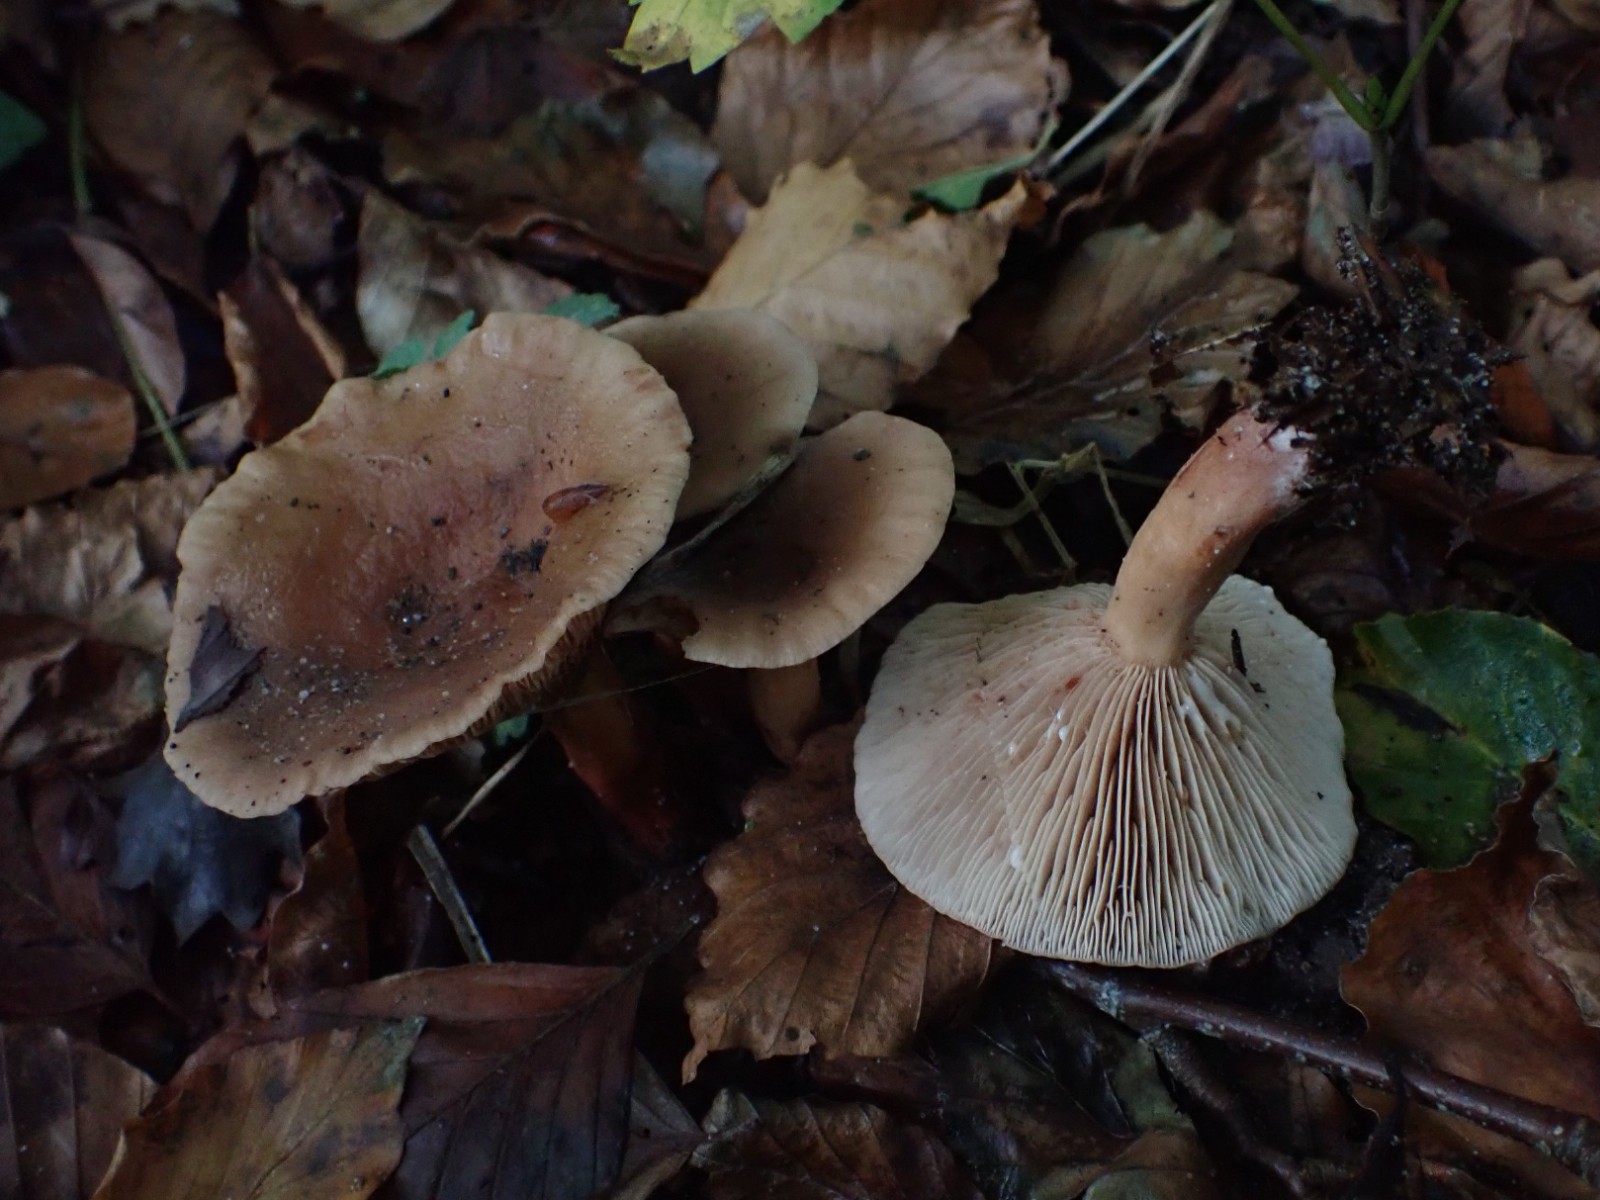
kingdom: Fungi
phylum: Basidiomycota
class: Agaricomycetes
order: Russulales
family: Russulaceae
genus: Lactarius
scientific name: Lactarius subdulcis
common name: sødlig mælkehat
